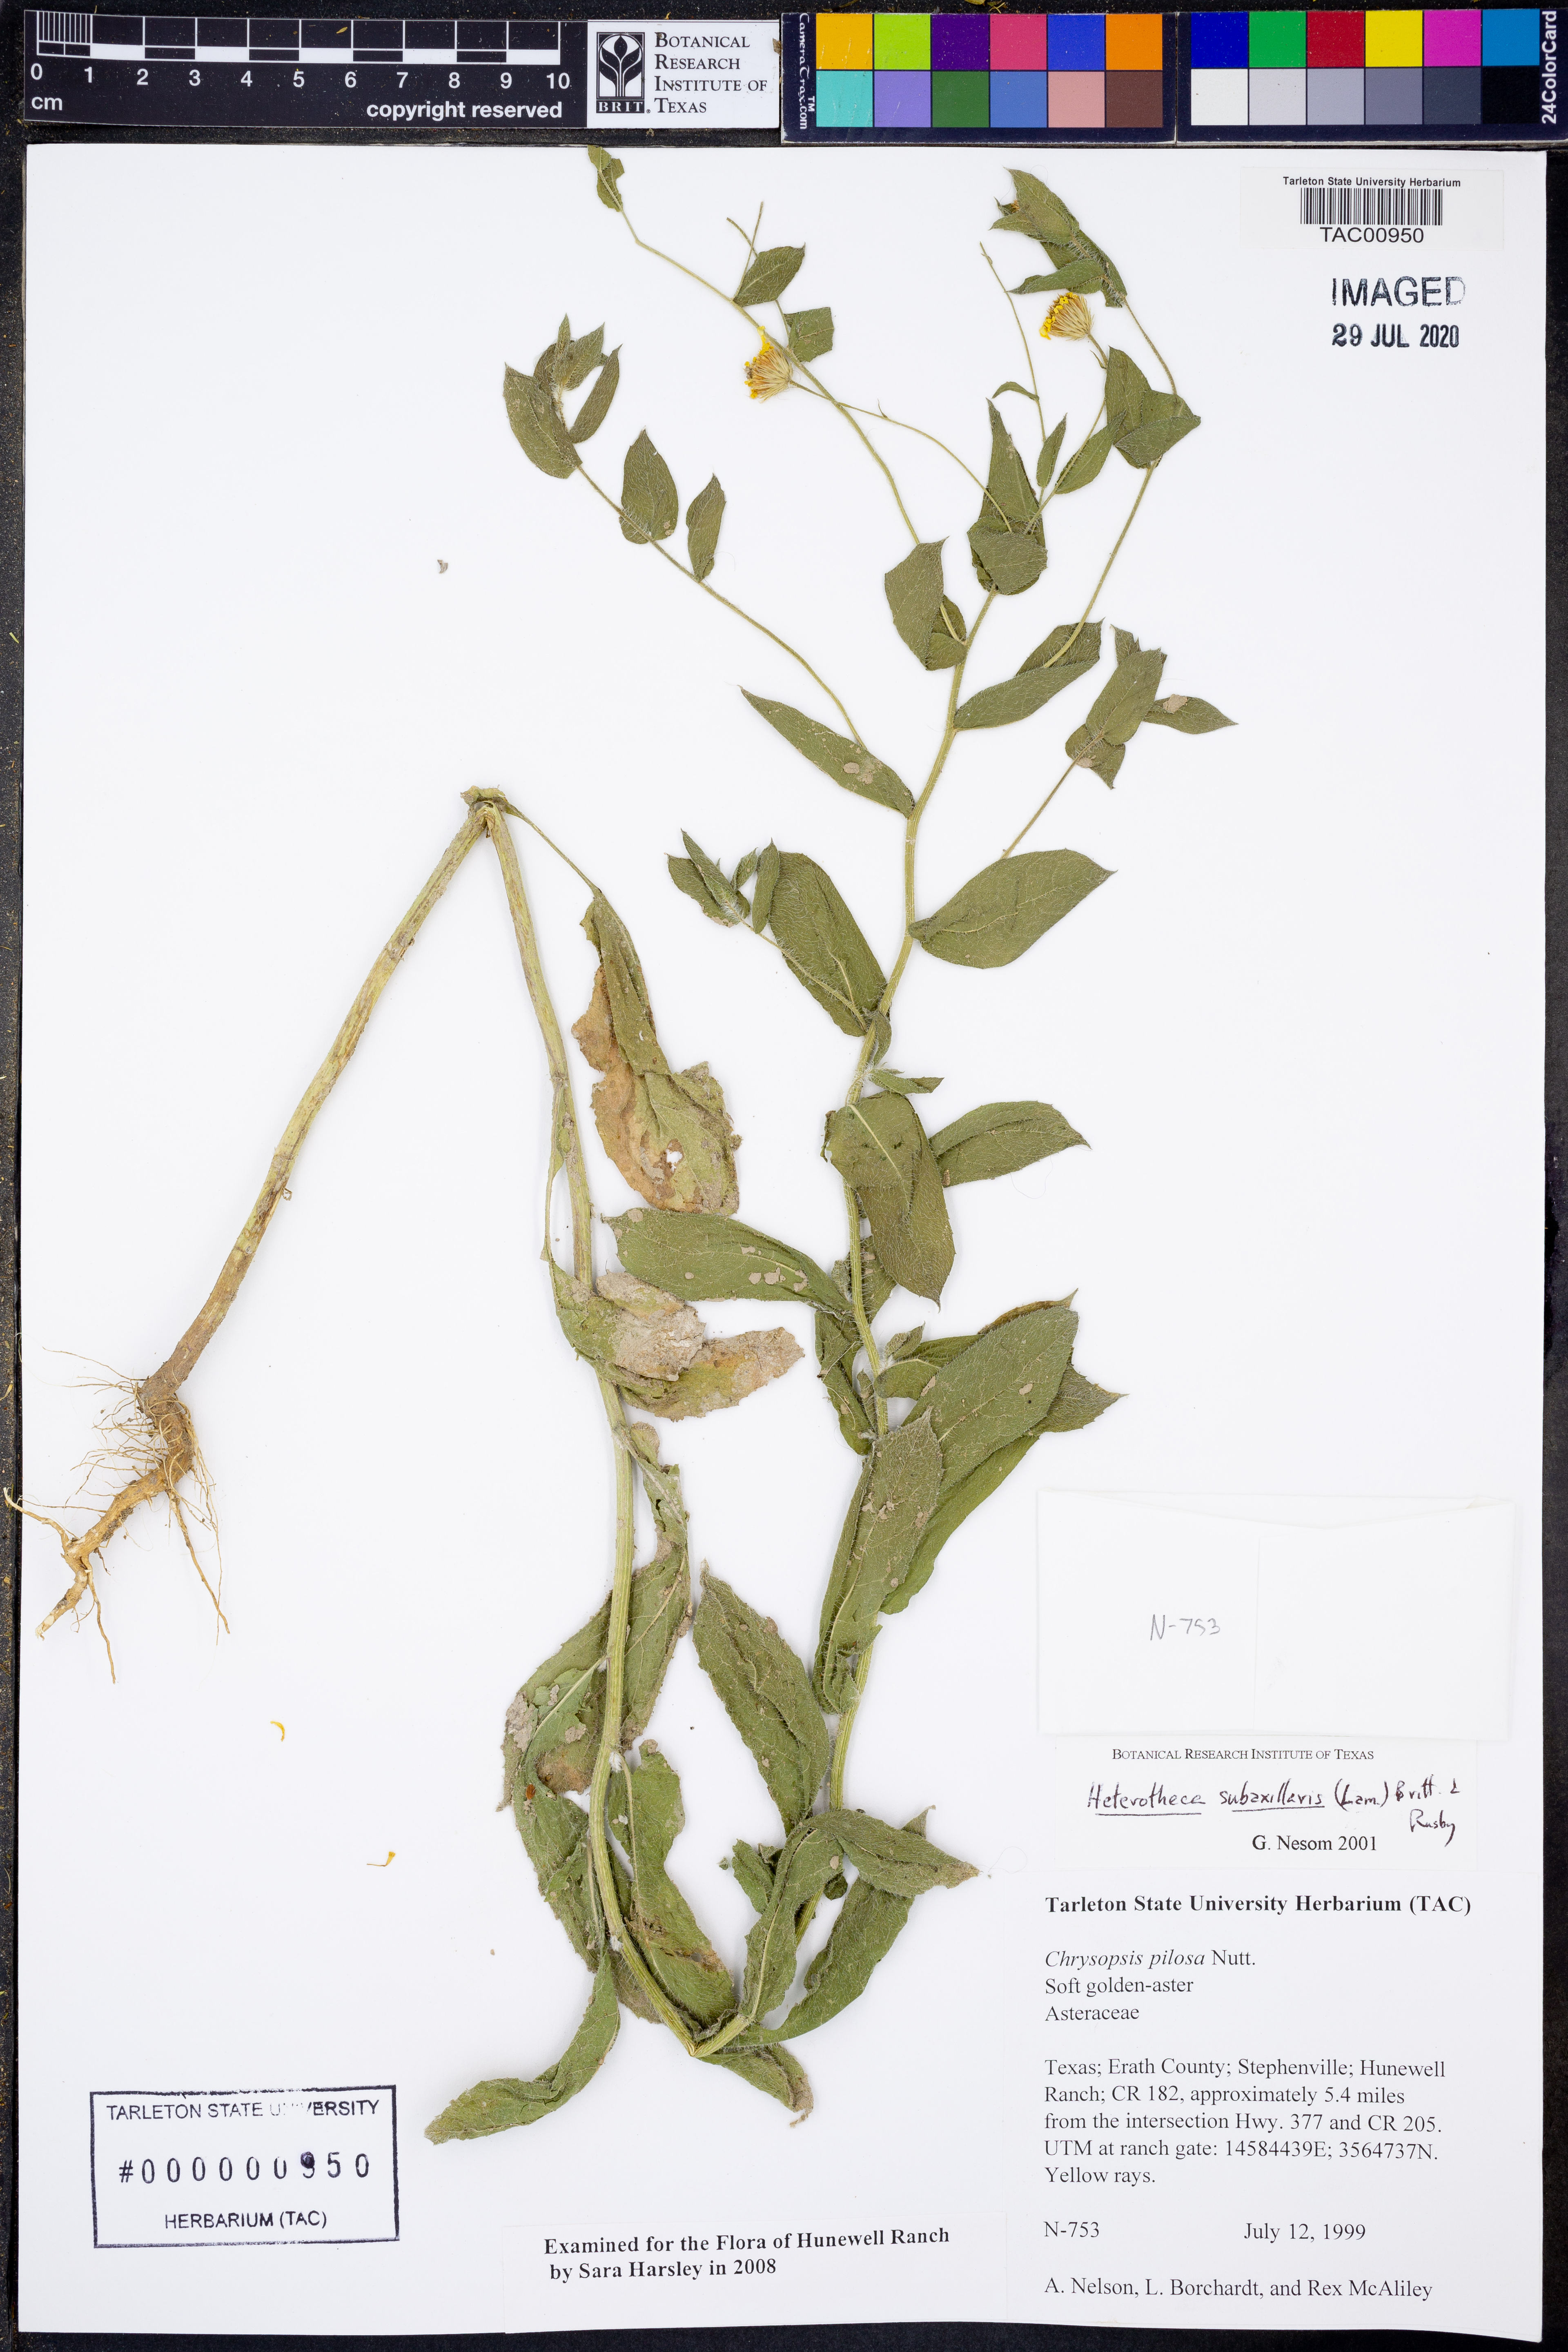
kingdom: Plantae
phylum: Tracheophyta
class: Magnoliopsida
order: Asterales
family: Asteraceae
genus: Heterotheca
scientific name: Heterotheca subaxillaris
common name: Camphorweed
